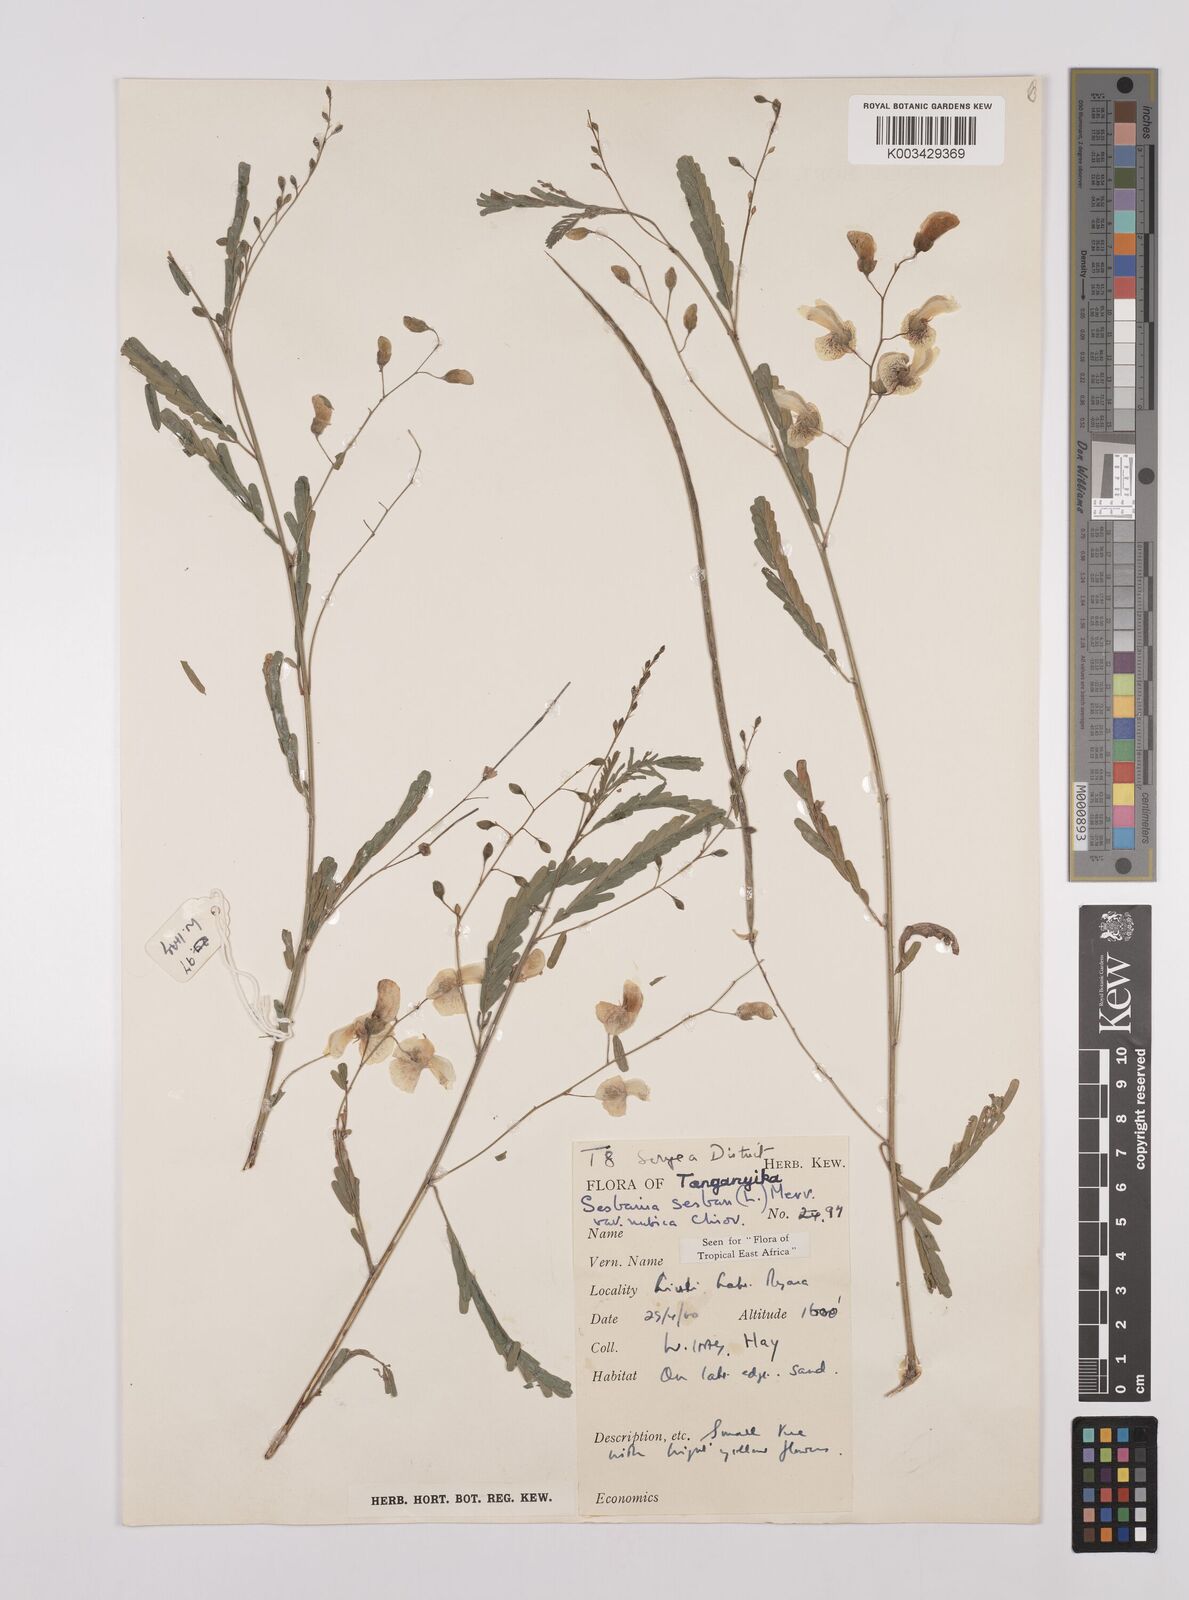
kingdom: Plantae
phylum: Tracheophyta
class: Magnoliopsida
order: Fabales
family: Fabaceae
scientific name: Fabaceae
